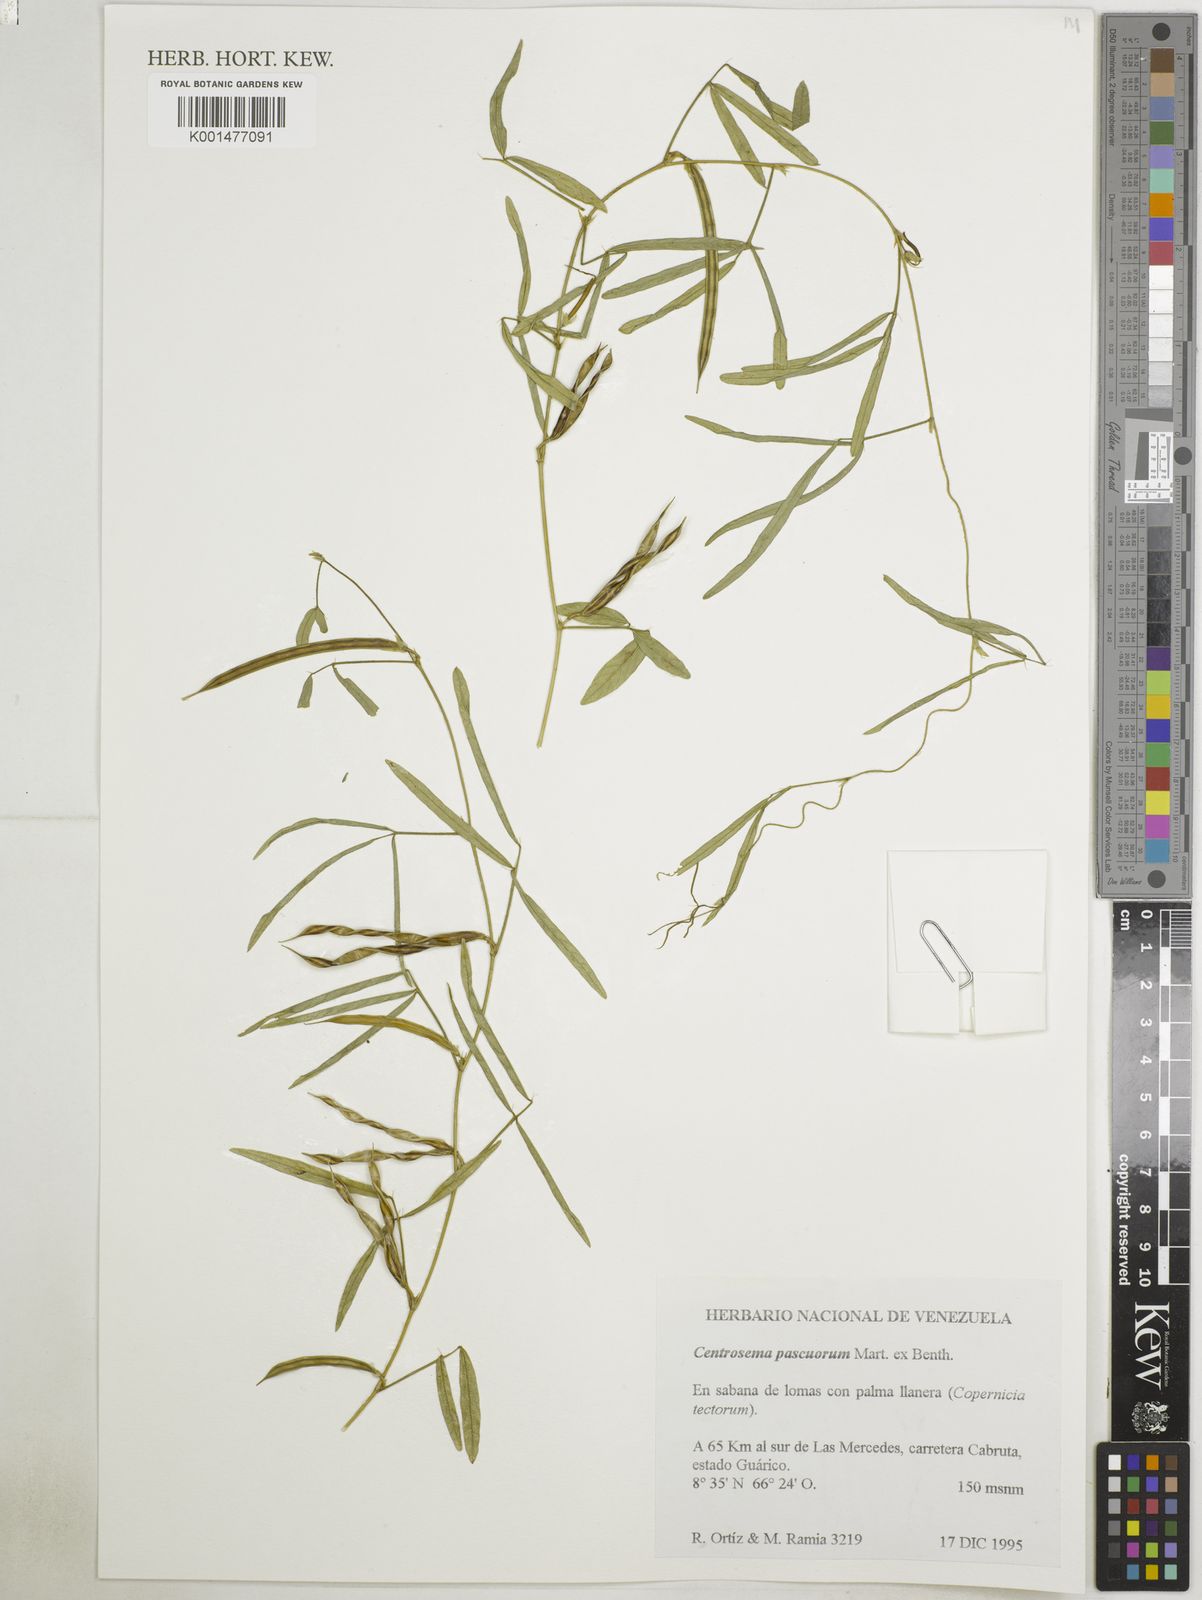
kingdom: Plantae
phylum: Tracheophyta
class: Magnoliopsida
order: Fabales
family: Fabaceae
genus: Centrosema
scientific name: Centrosema pascuorum
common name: Centurion
